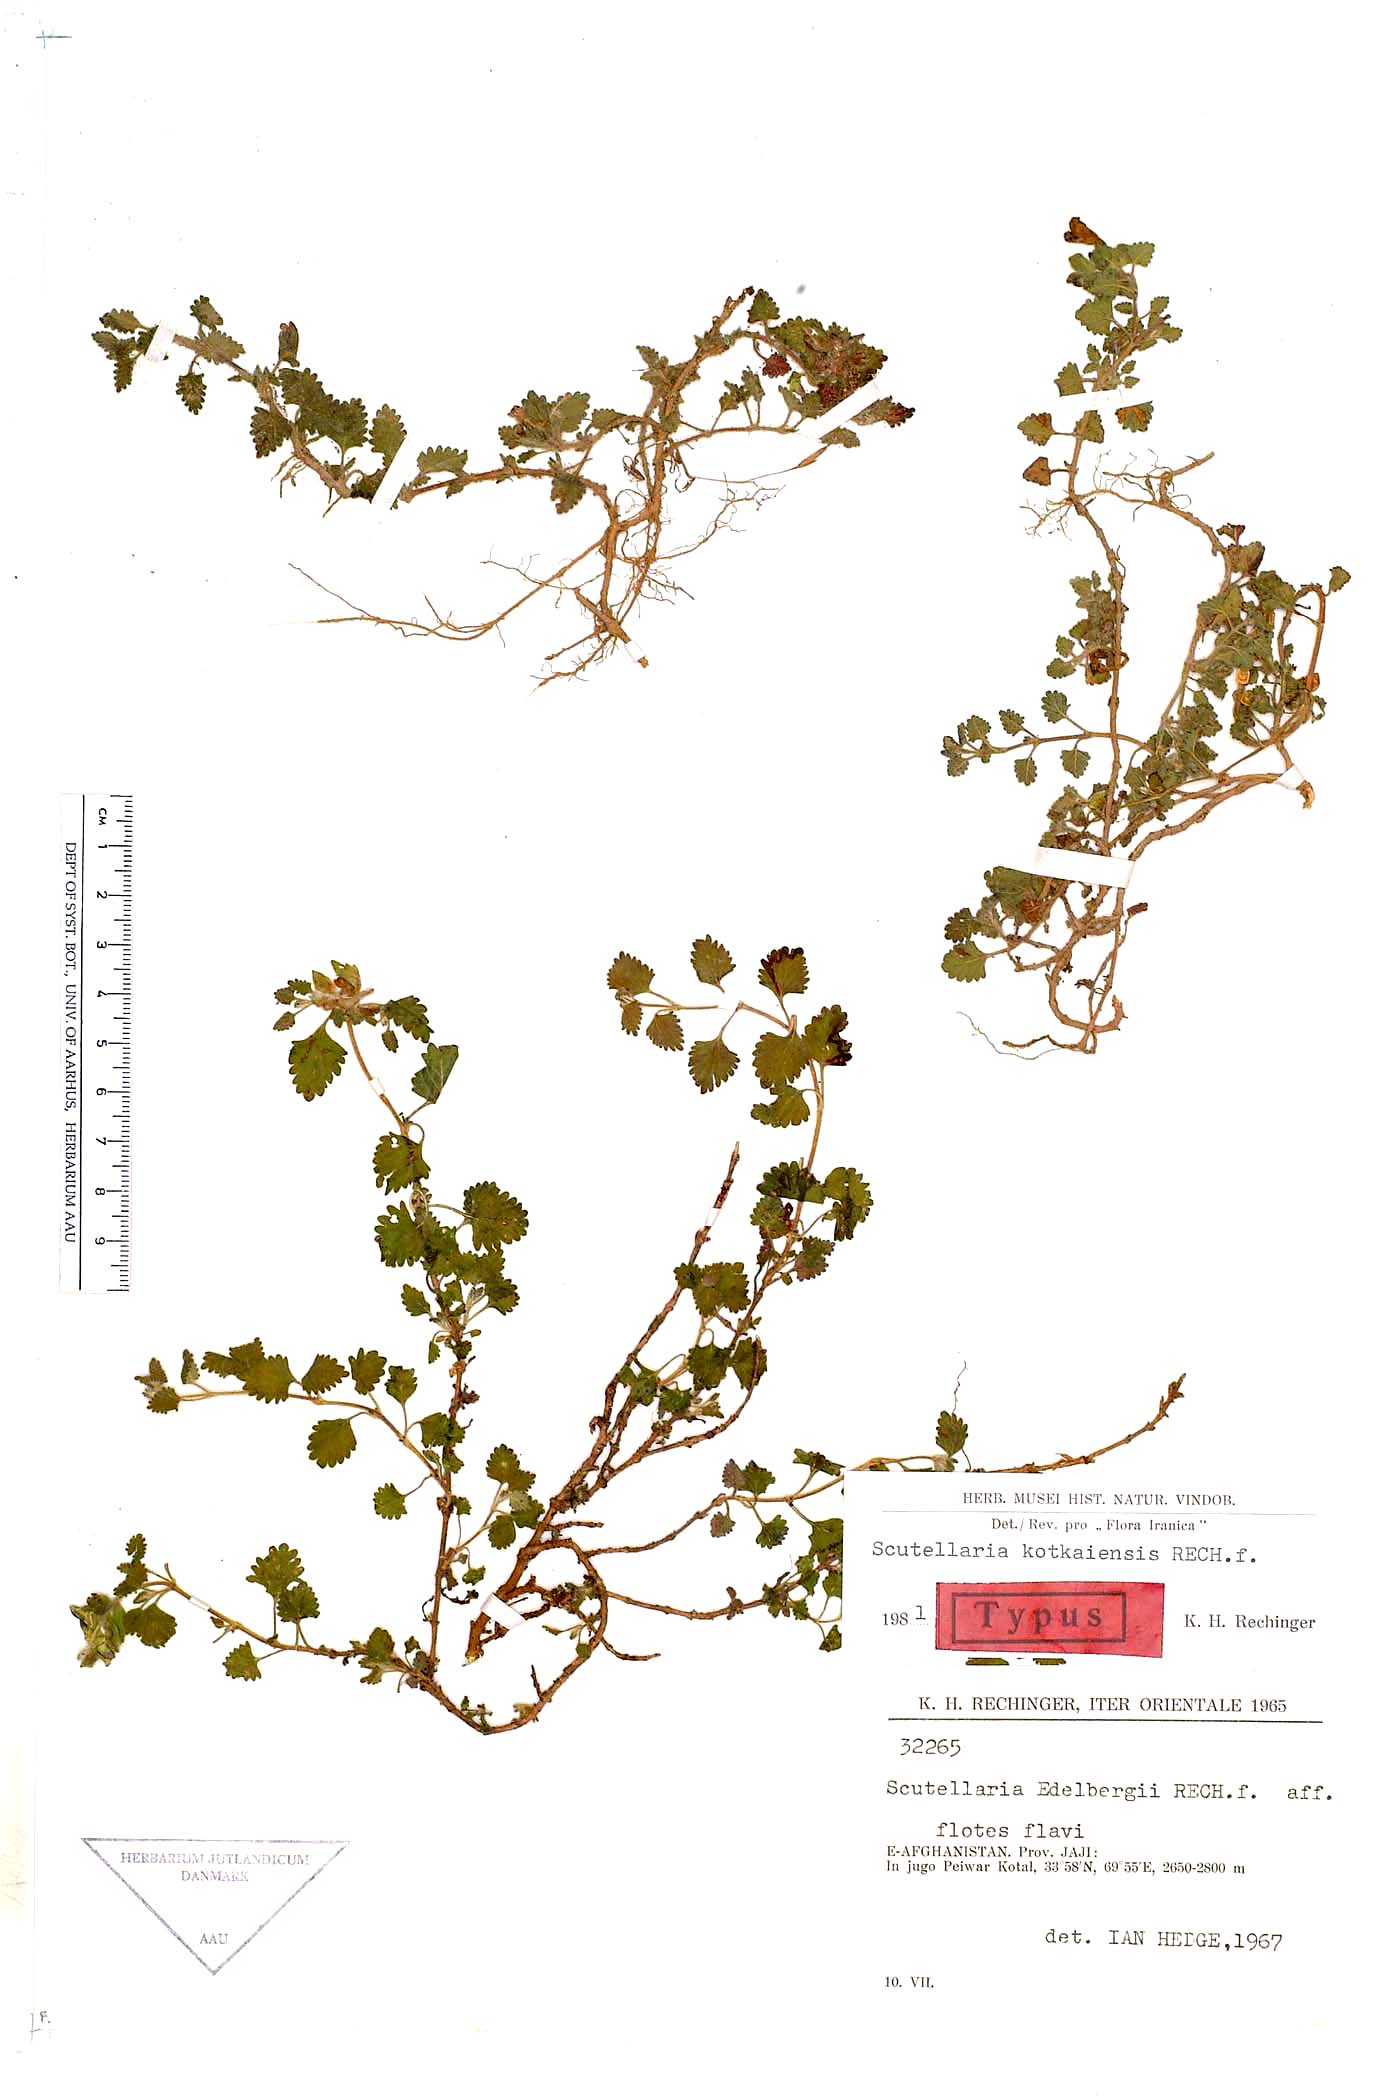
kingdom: Plantae
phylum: Tracheophyta
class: Magnoliopsida
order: Lamiales
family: Lamiaceae
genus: Scutellaria
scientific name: Scutellaria kotkaiensis
